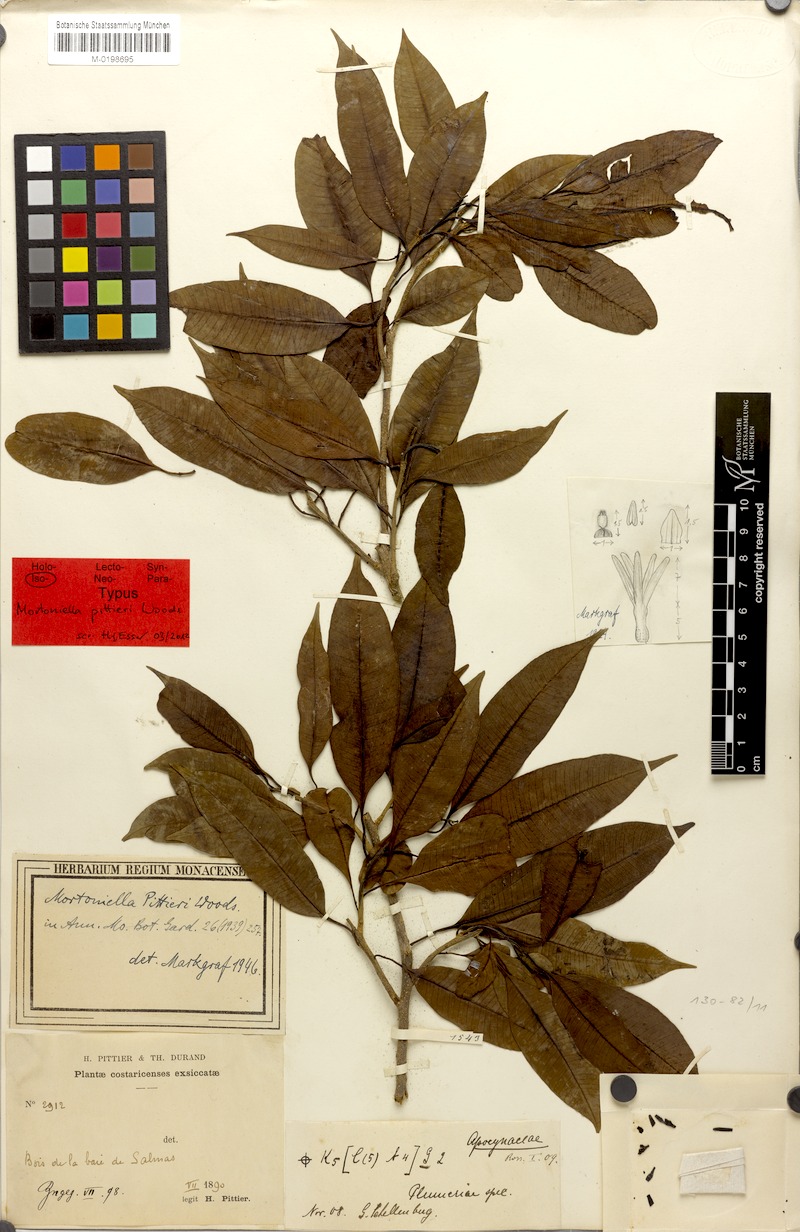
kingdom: Plantae
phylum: Tracheophyta
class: Magnoliopsida
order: Gentianales
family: Apocynaceae
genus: Mortoniella
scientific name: Mortoniella pittieri
